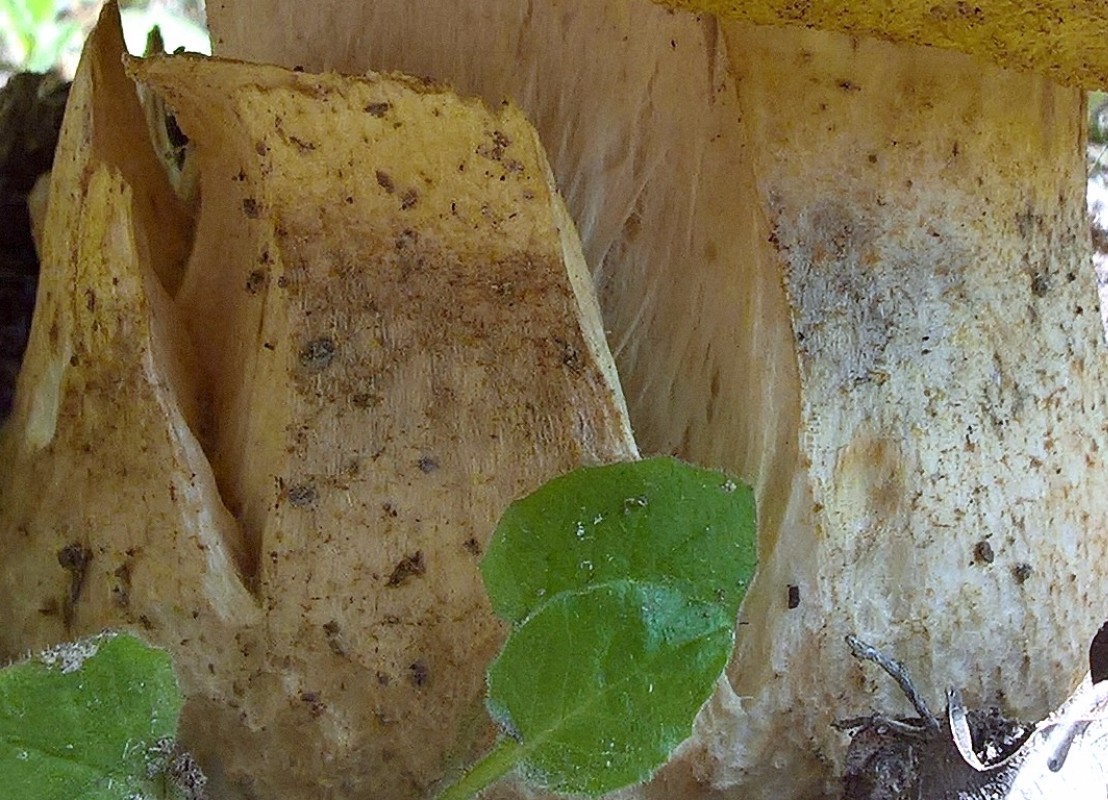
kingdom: Fungi
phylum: Basidiomycota
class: Agaricomycetes
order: Boletales
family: Boletaceae
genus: Hemileccinum
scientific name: Hemileccinum impolitum
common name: bleg rørhat
